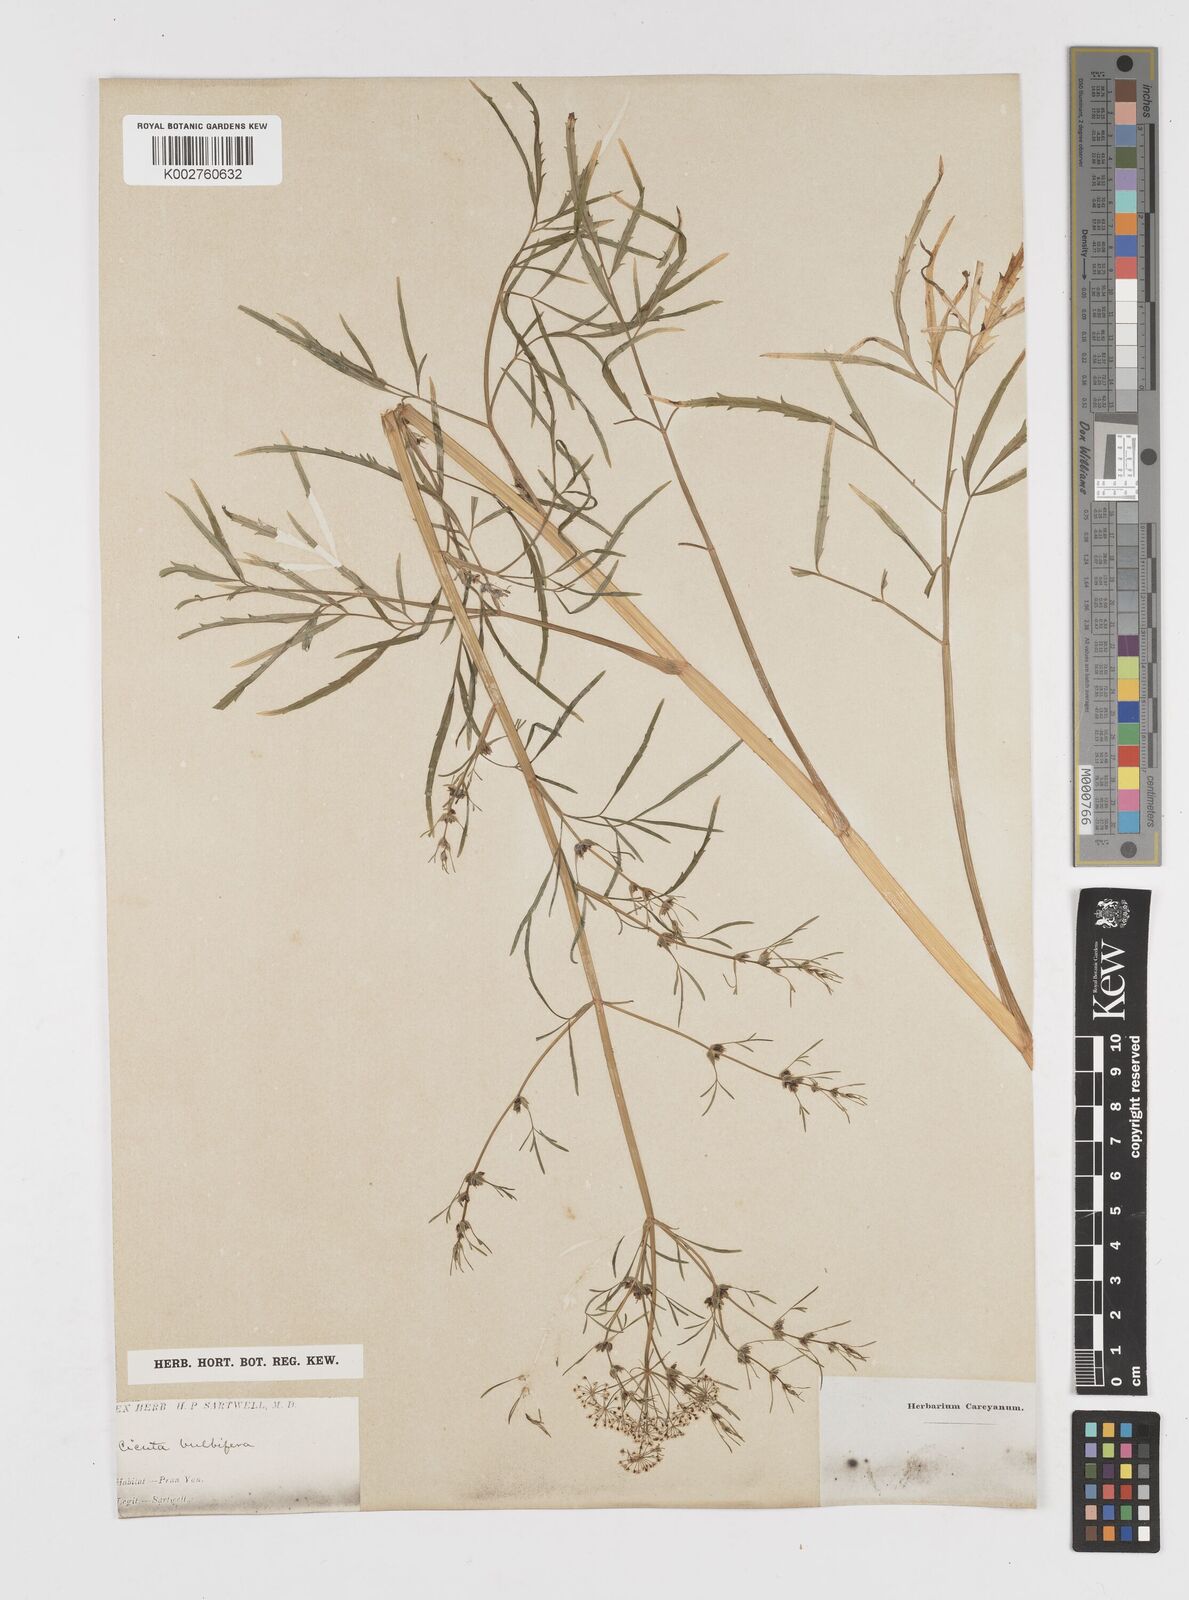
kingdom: Plantae
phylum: Tracheophyta
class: Magnoliopsida
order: Apiales
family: Apiaceae
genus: Cicuta
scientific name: Cicuta bulbifera
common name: Bulb-bearing water-hemlock
